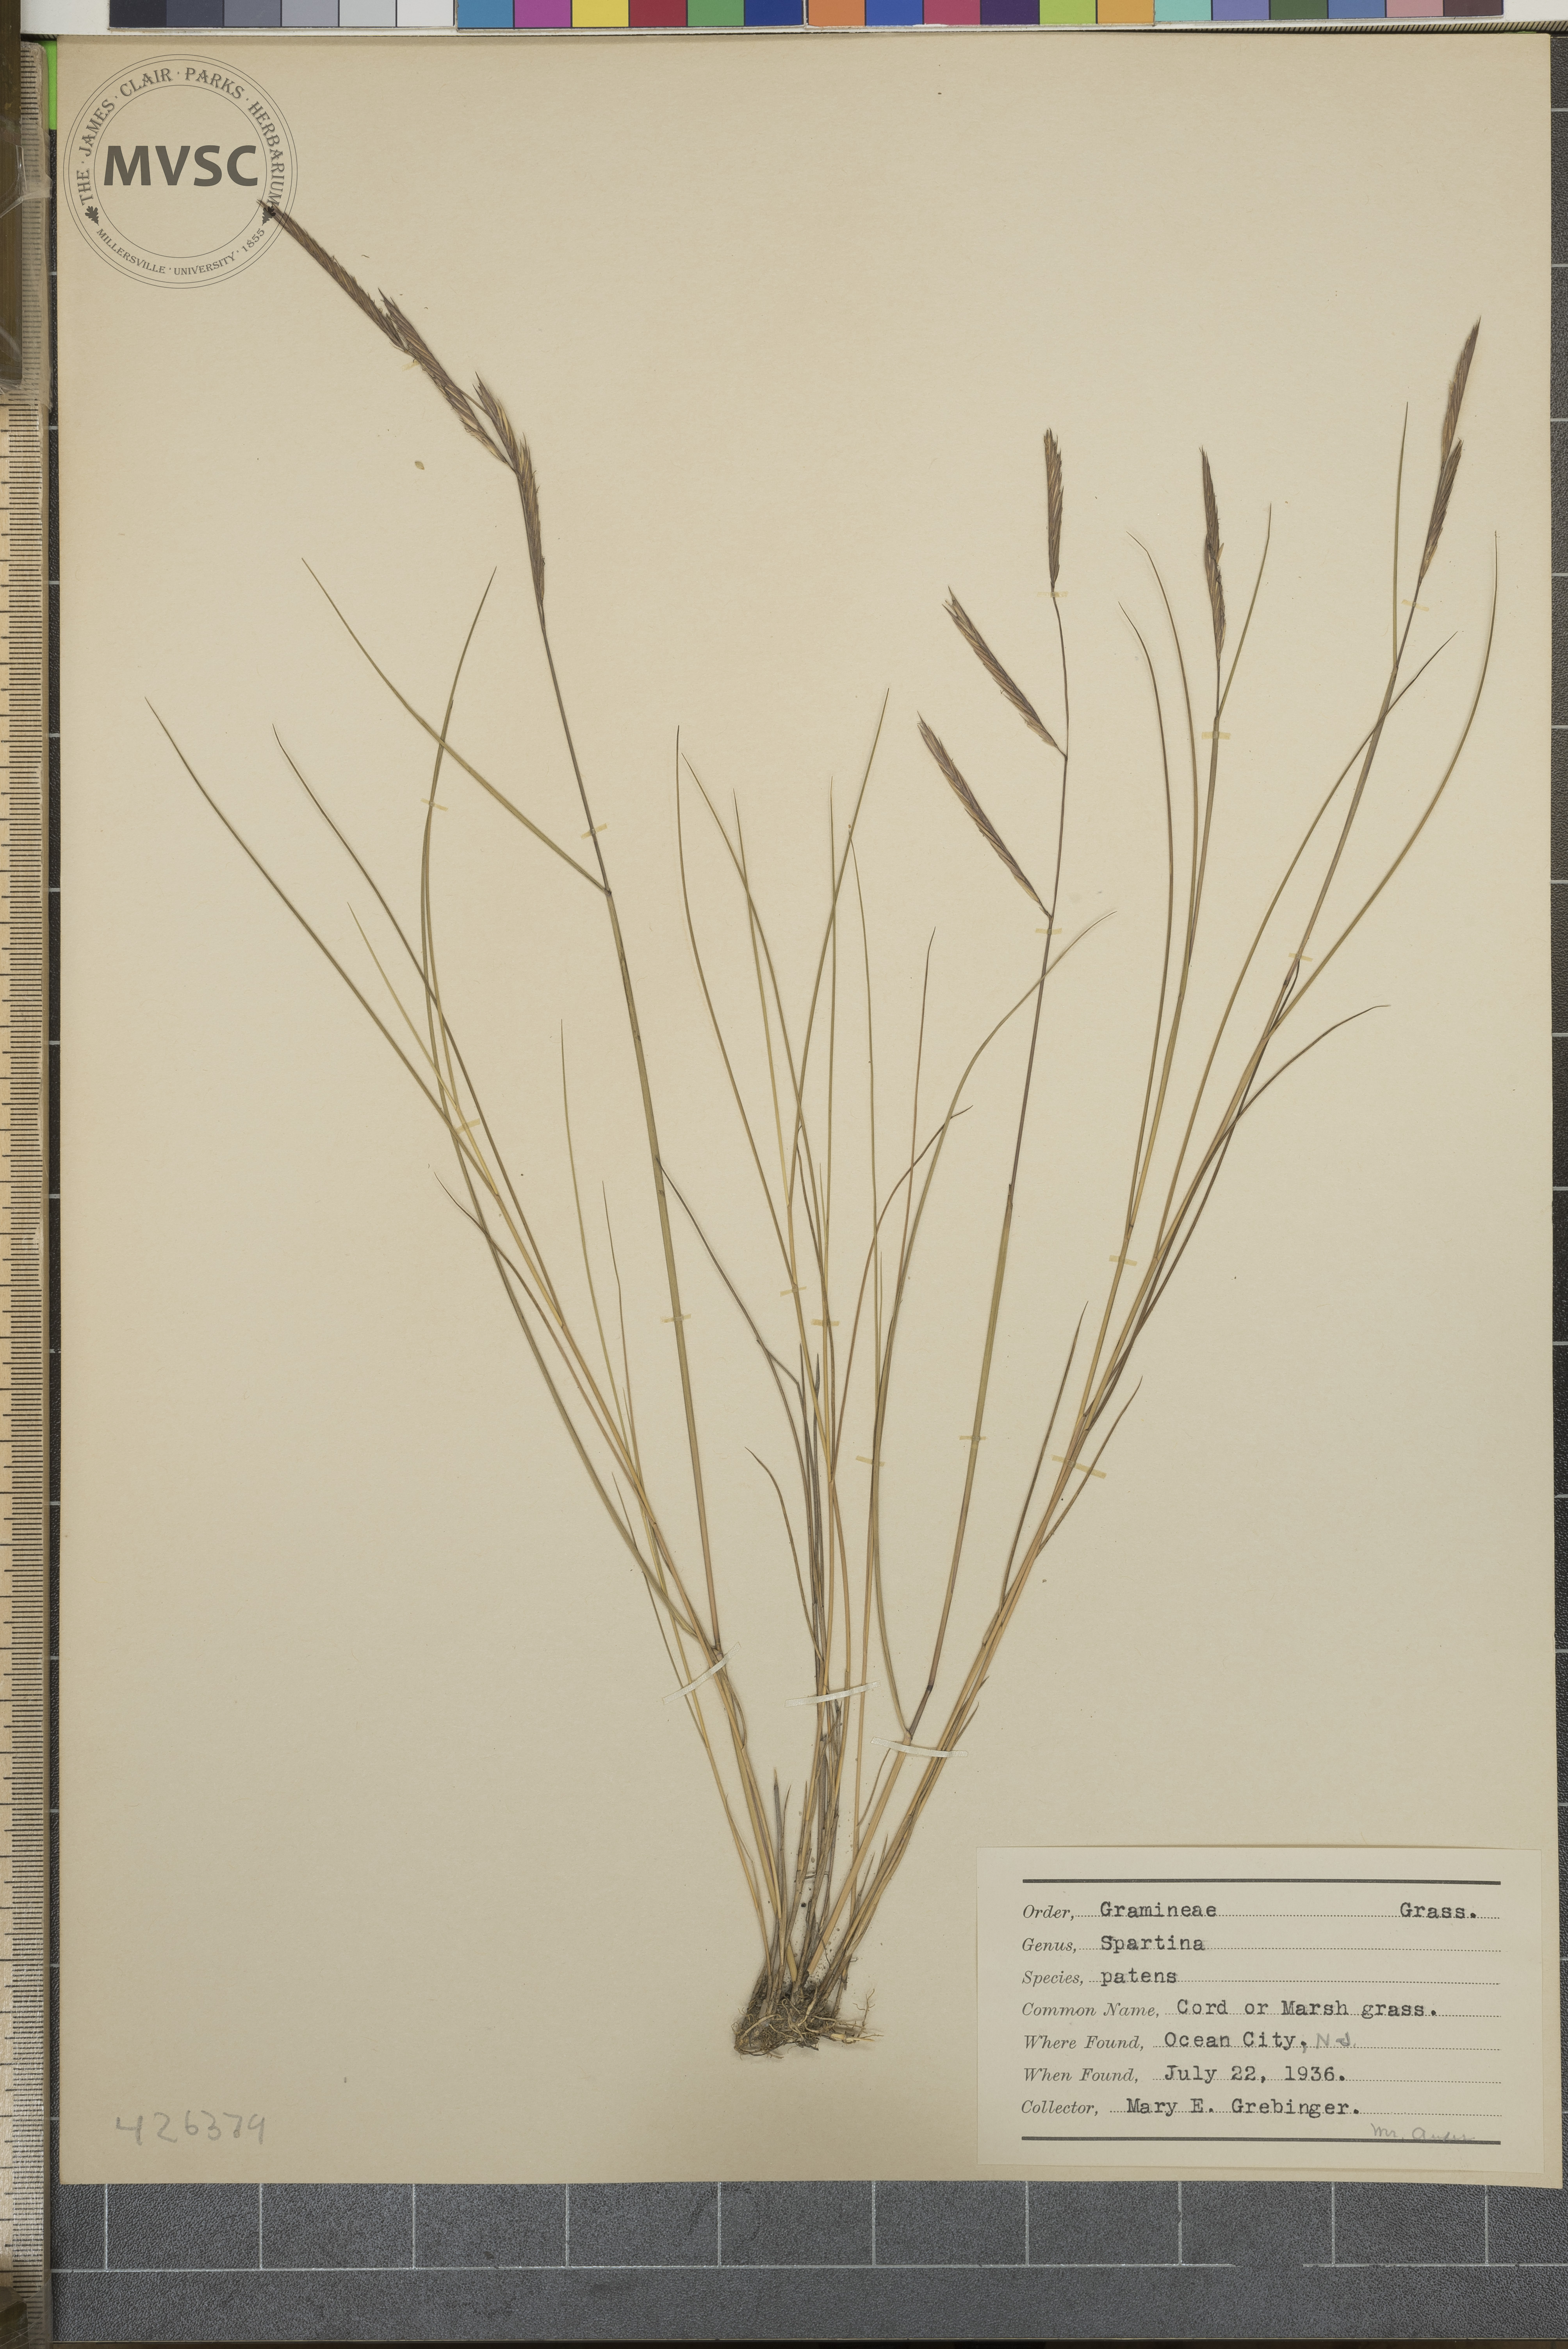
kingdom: Plantae
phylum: Tracheophyta
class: Liliopsida
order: Poales
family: Poaceae
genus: Sporobolus
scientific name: Sporobolus pumilus
